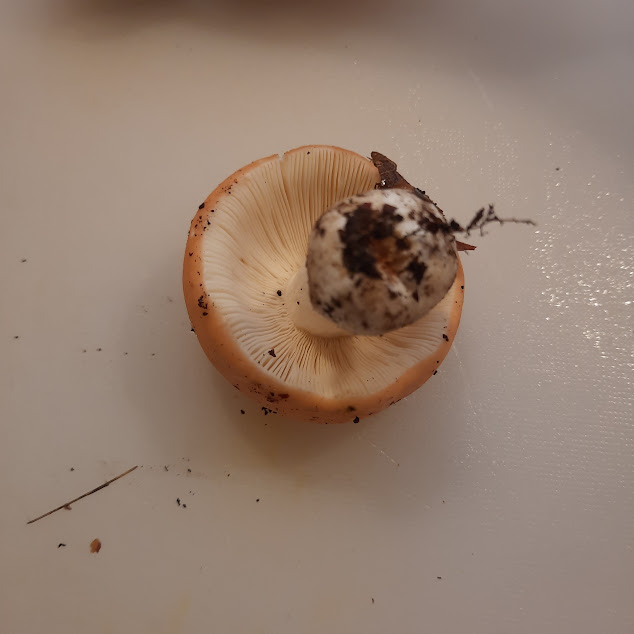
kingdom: Fungi
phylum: Basidiomycota
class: Agaricomycetes
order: Russulales
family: Russulaceae
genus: Russula
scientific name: Russula
